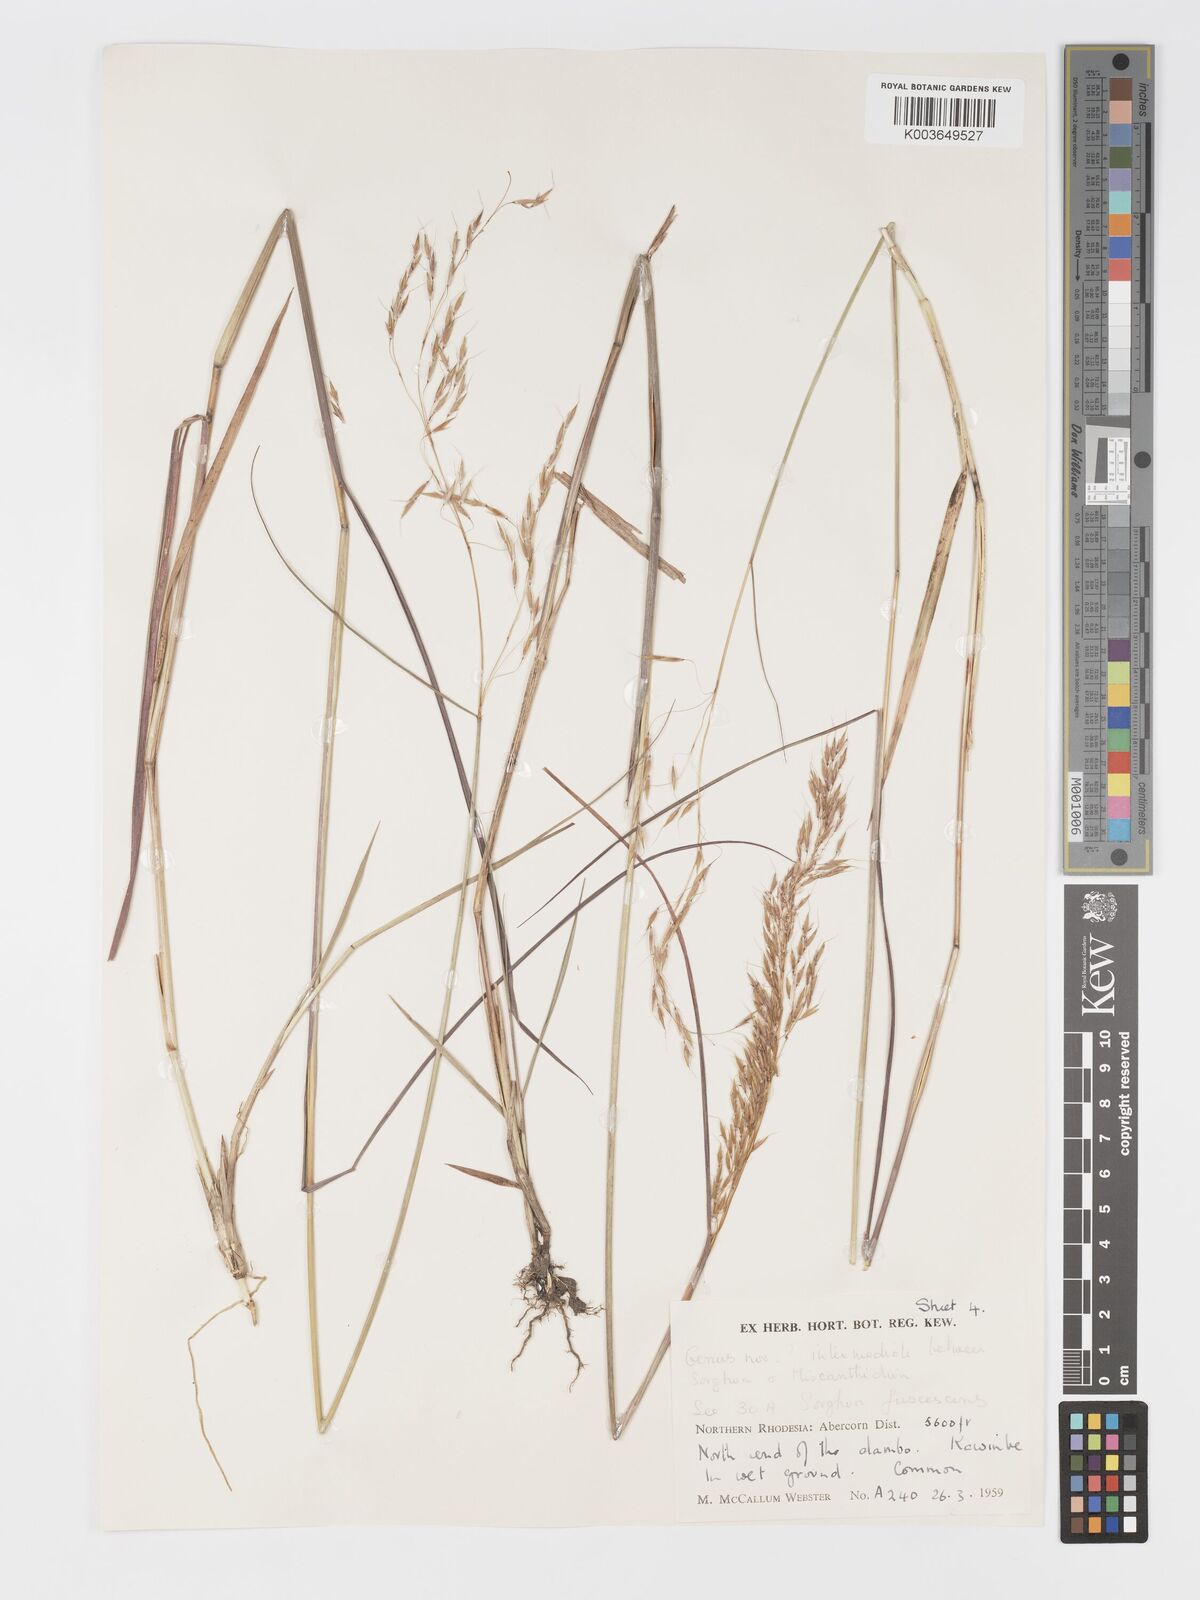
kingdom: Plantae
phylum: Tracheophyta
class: Liliopsida
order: Poales
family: Poaceae
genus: Sorghastrum
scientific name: Sorghastrum nudipes
